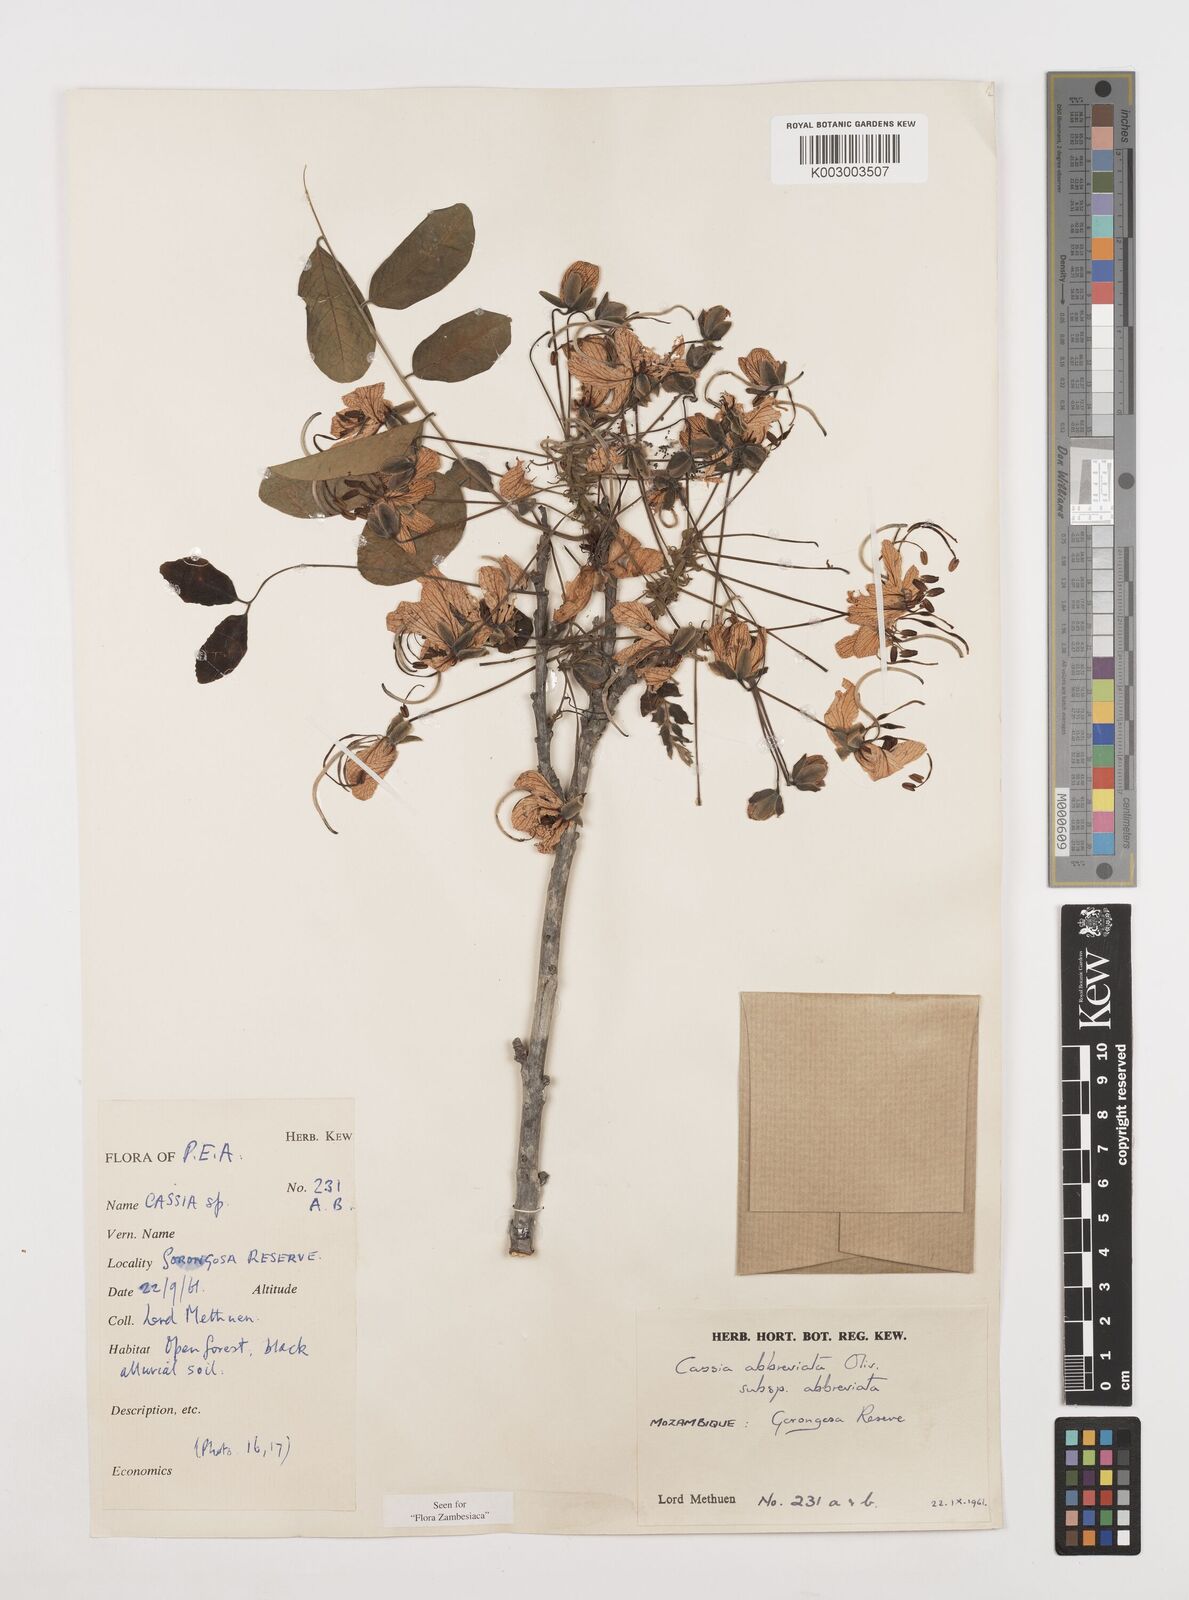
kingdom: Plantae
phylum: Tracheophyta
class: Magnoliopsida
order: Fabales
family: Fabaceae
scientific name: Fabaceae
